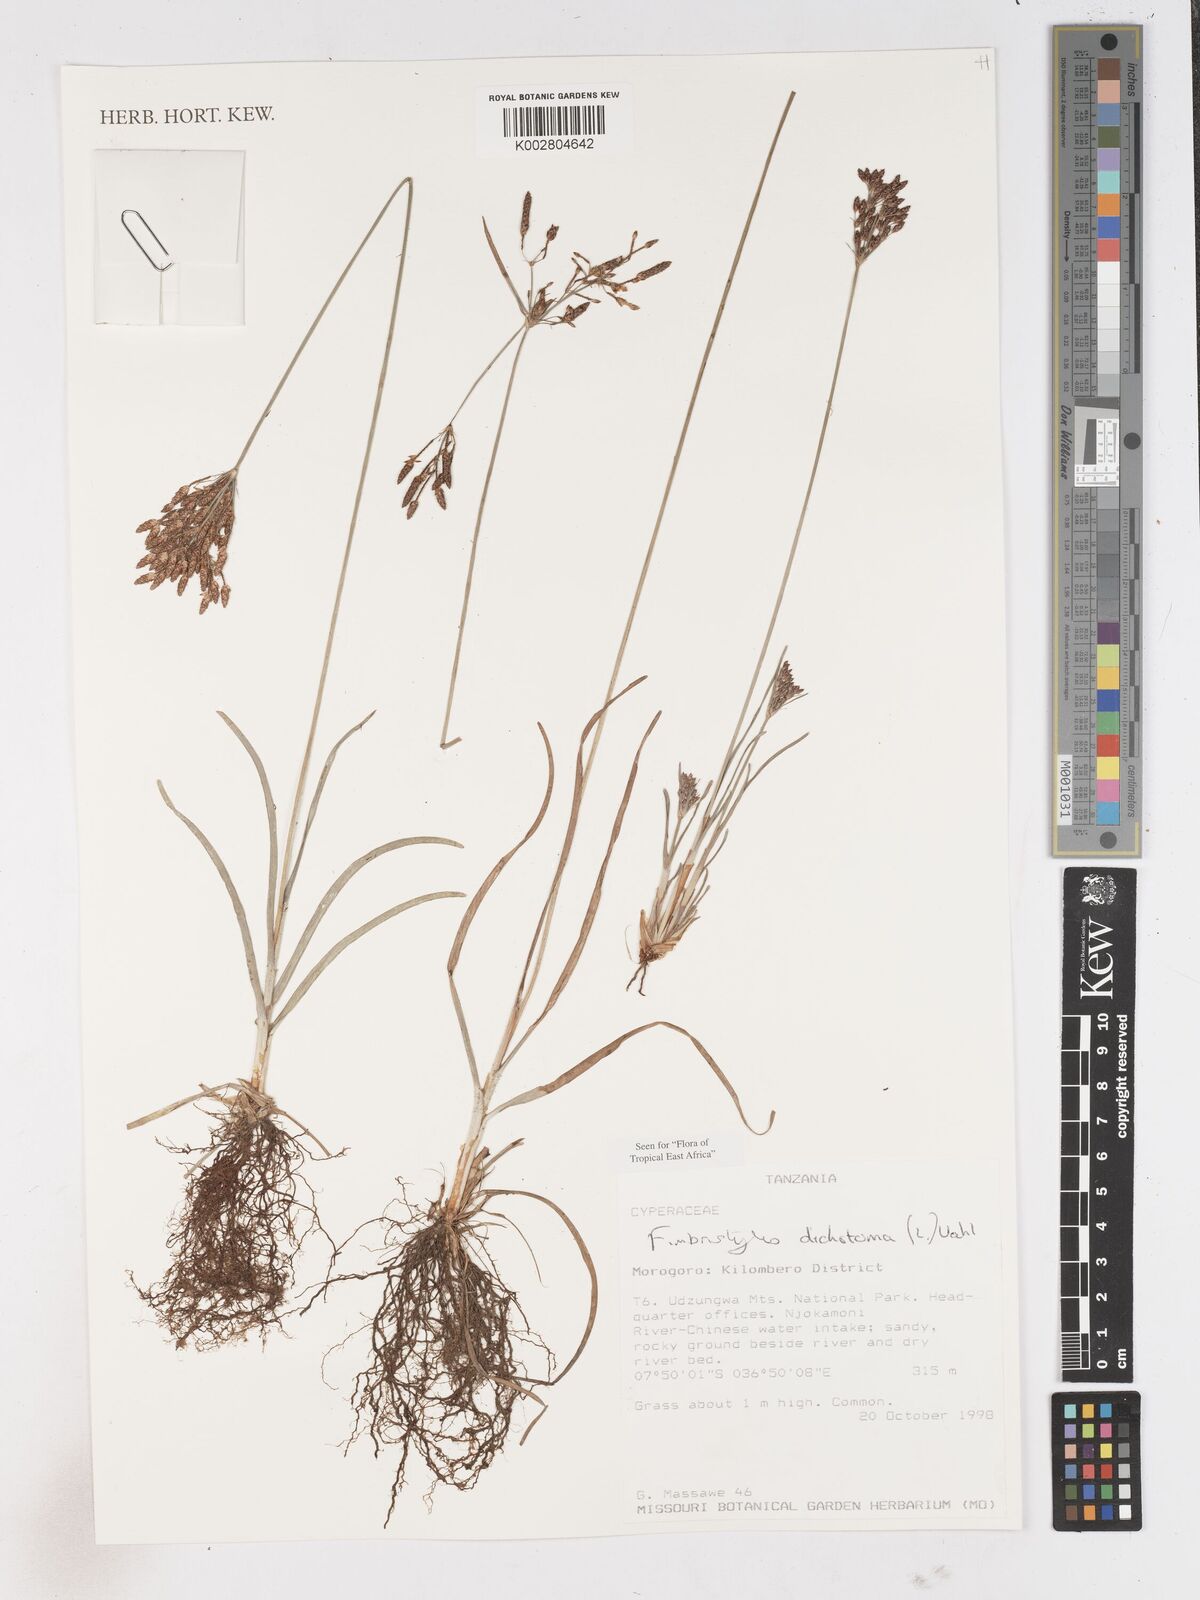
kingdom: Plantae
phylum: Tracheophyta
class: Liliopsida
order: Poales
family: Cyperaceae
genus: Fimbristylis
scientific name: Fimbristylis dichotoma
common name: Forked fimbry
